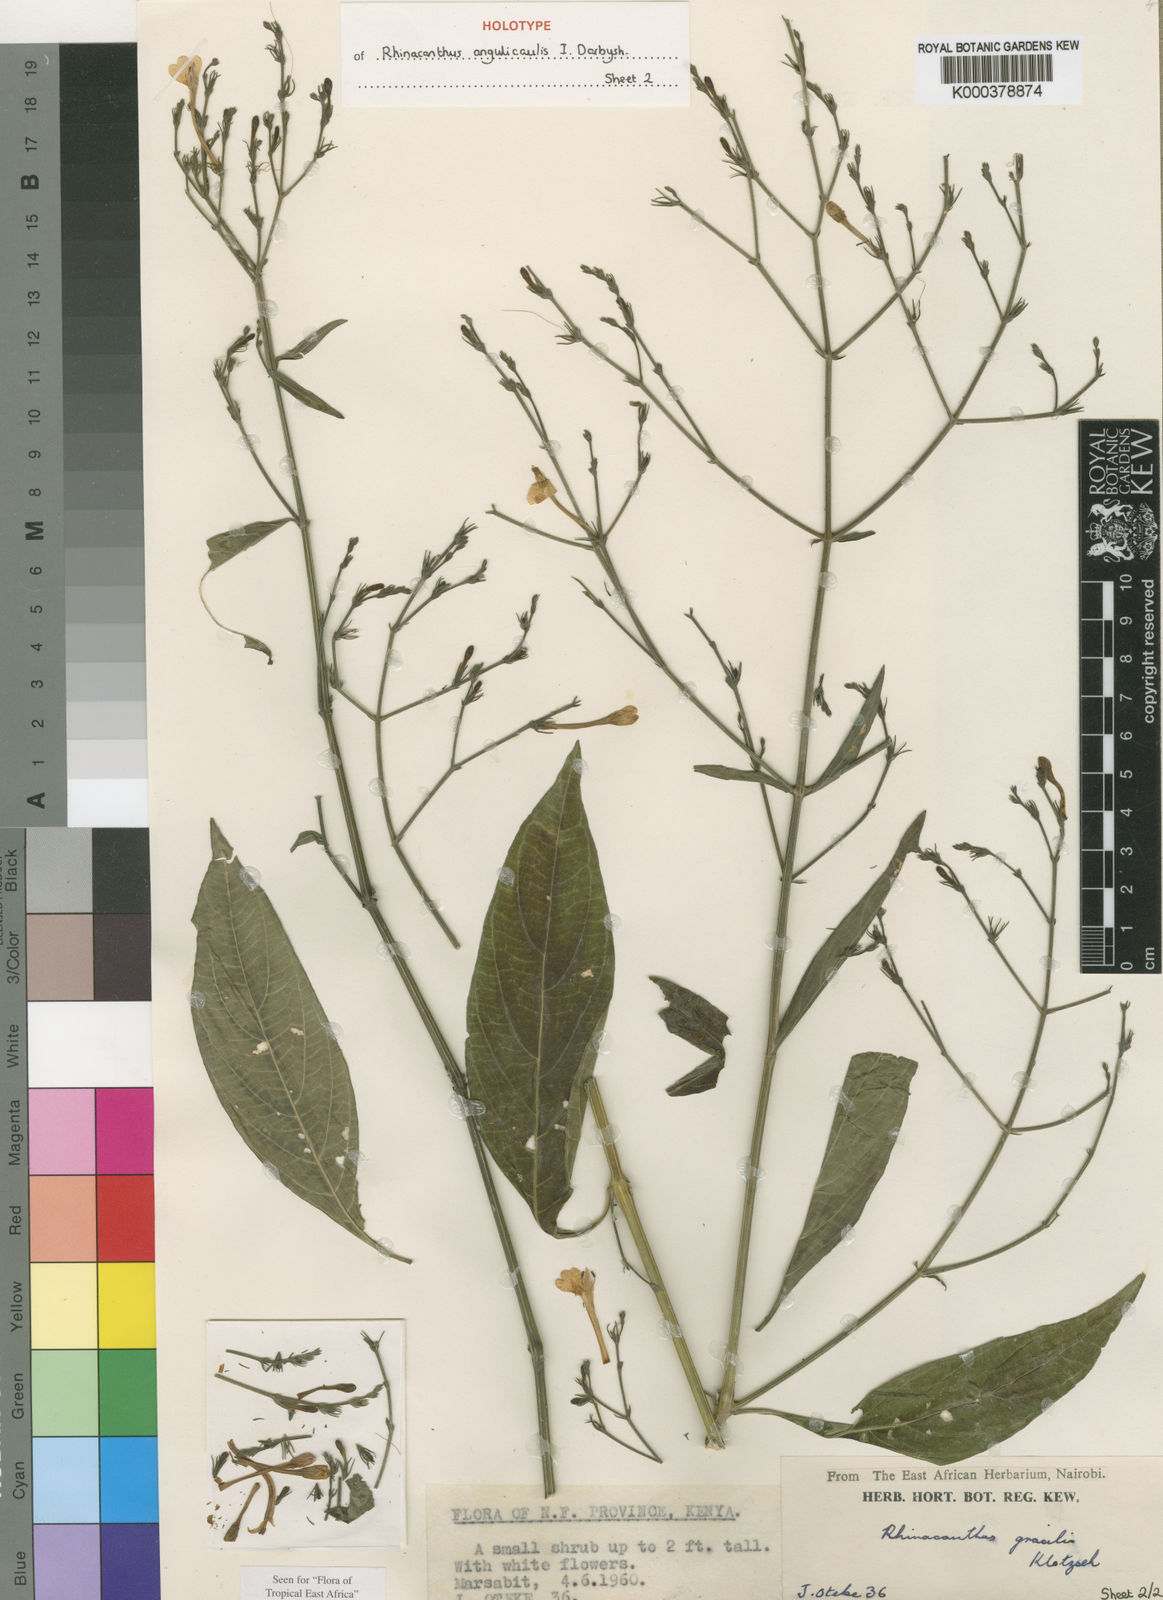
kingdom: Plantae
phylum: Tracheophyta
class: Magnoliopsida
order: Lamiales
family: Acanthaceae
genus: Rhinacanthus
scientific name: Rhinacanthus angulicaulis
